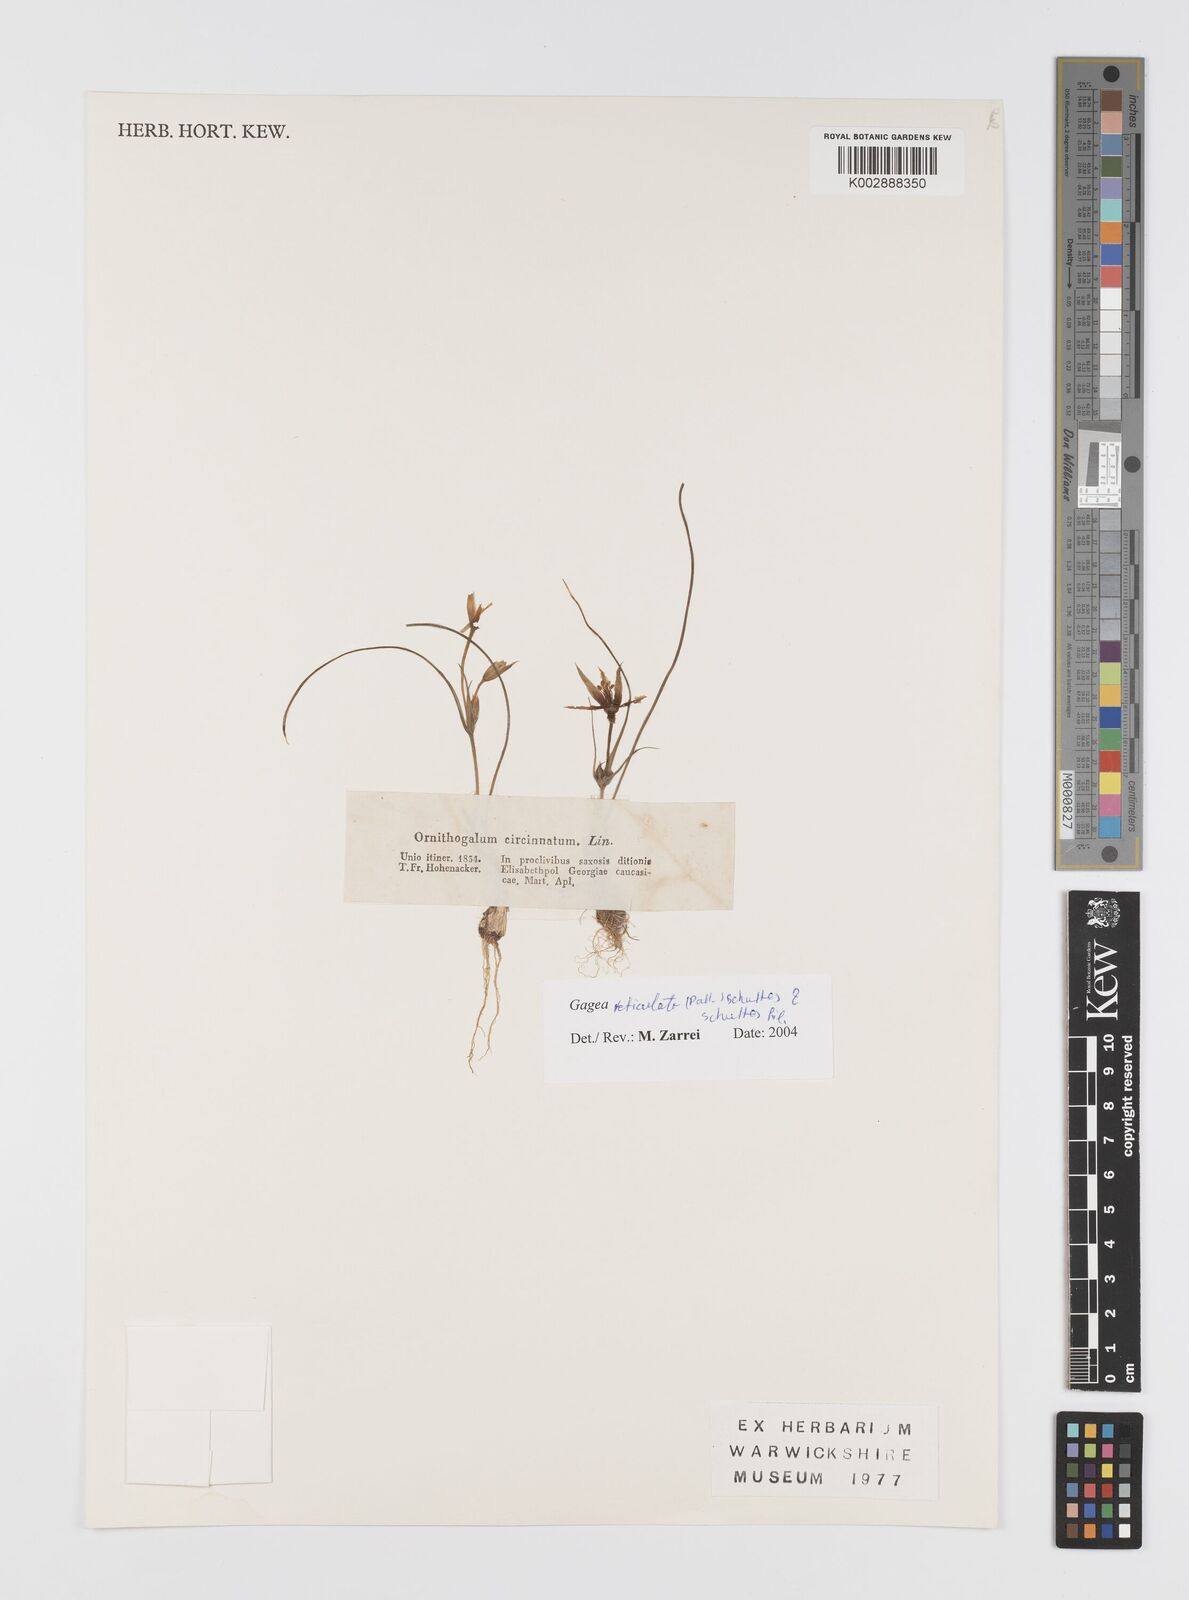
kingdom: Plantae
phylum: Tracheophyta
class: Liliopsida
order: Liliales
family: Liliaceae
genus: Gagea
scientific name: Gagea reticulata
